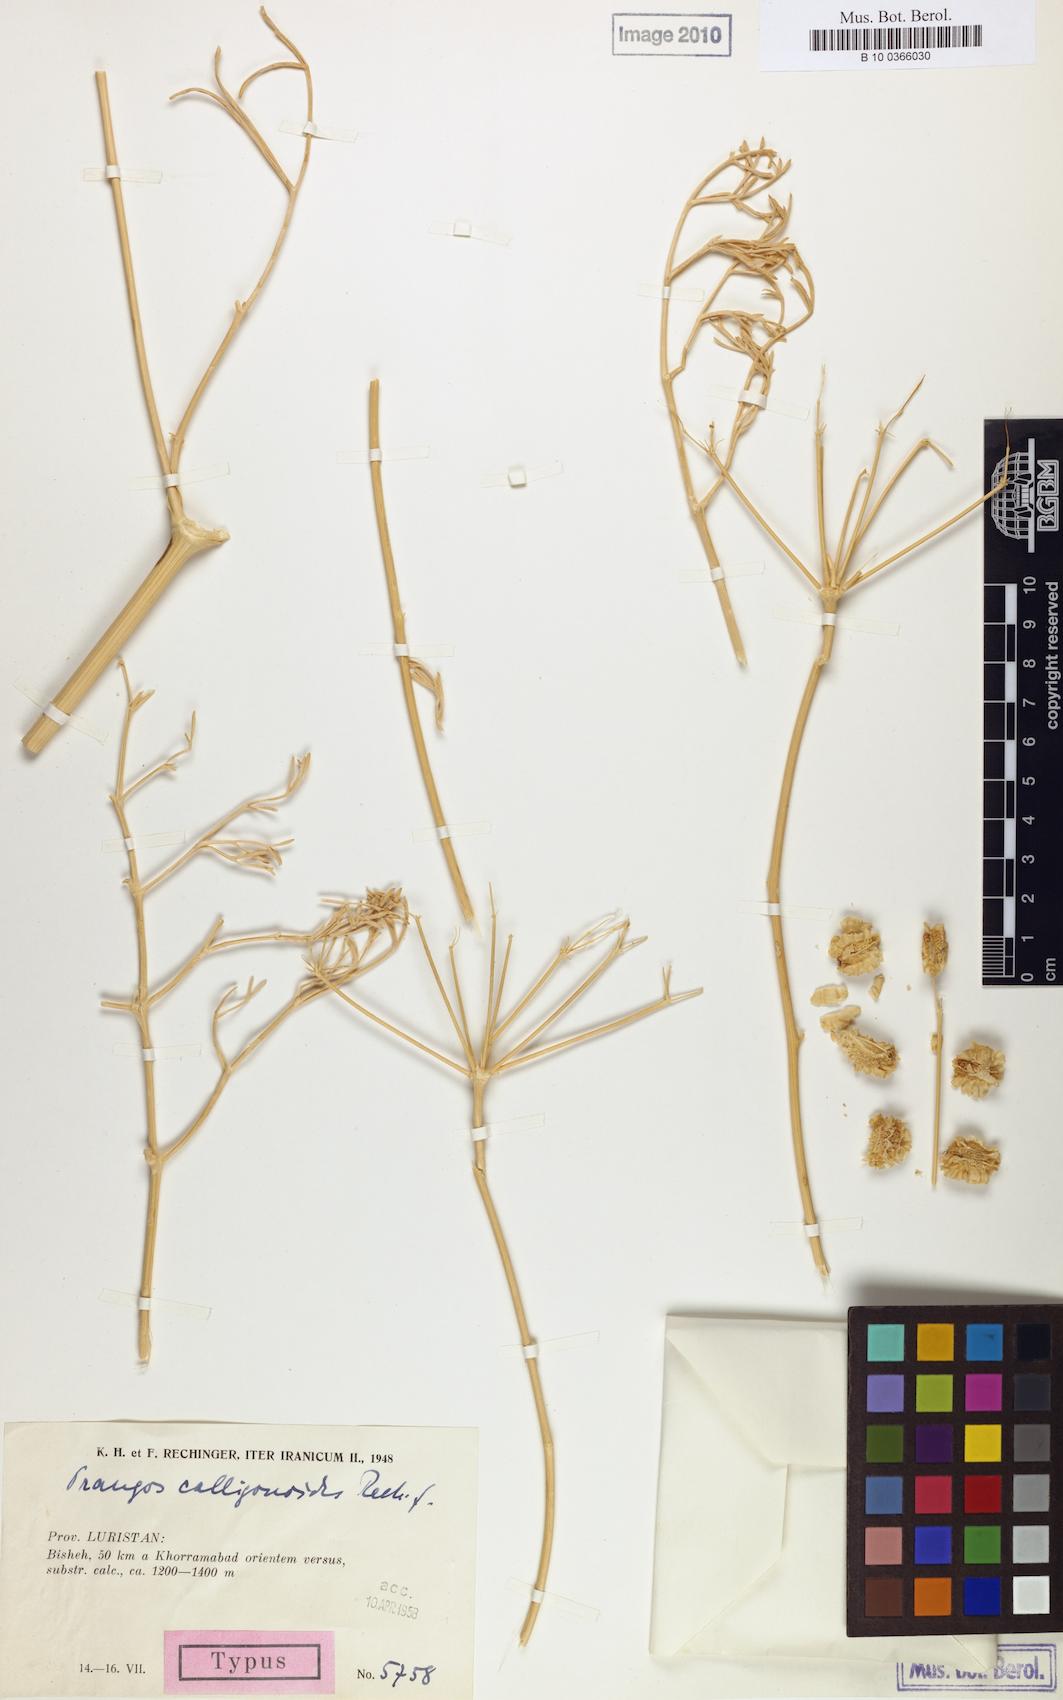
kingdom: Plantae
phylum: Tracheophyta
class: Magnoliopsida
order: Apiales
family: Apiaceae
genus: Prangos
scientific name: Prangos calligonoides
